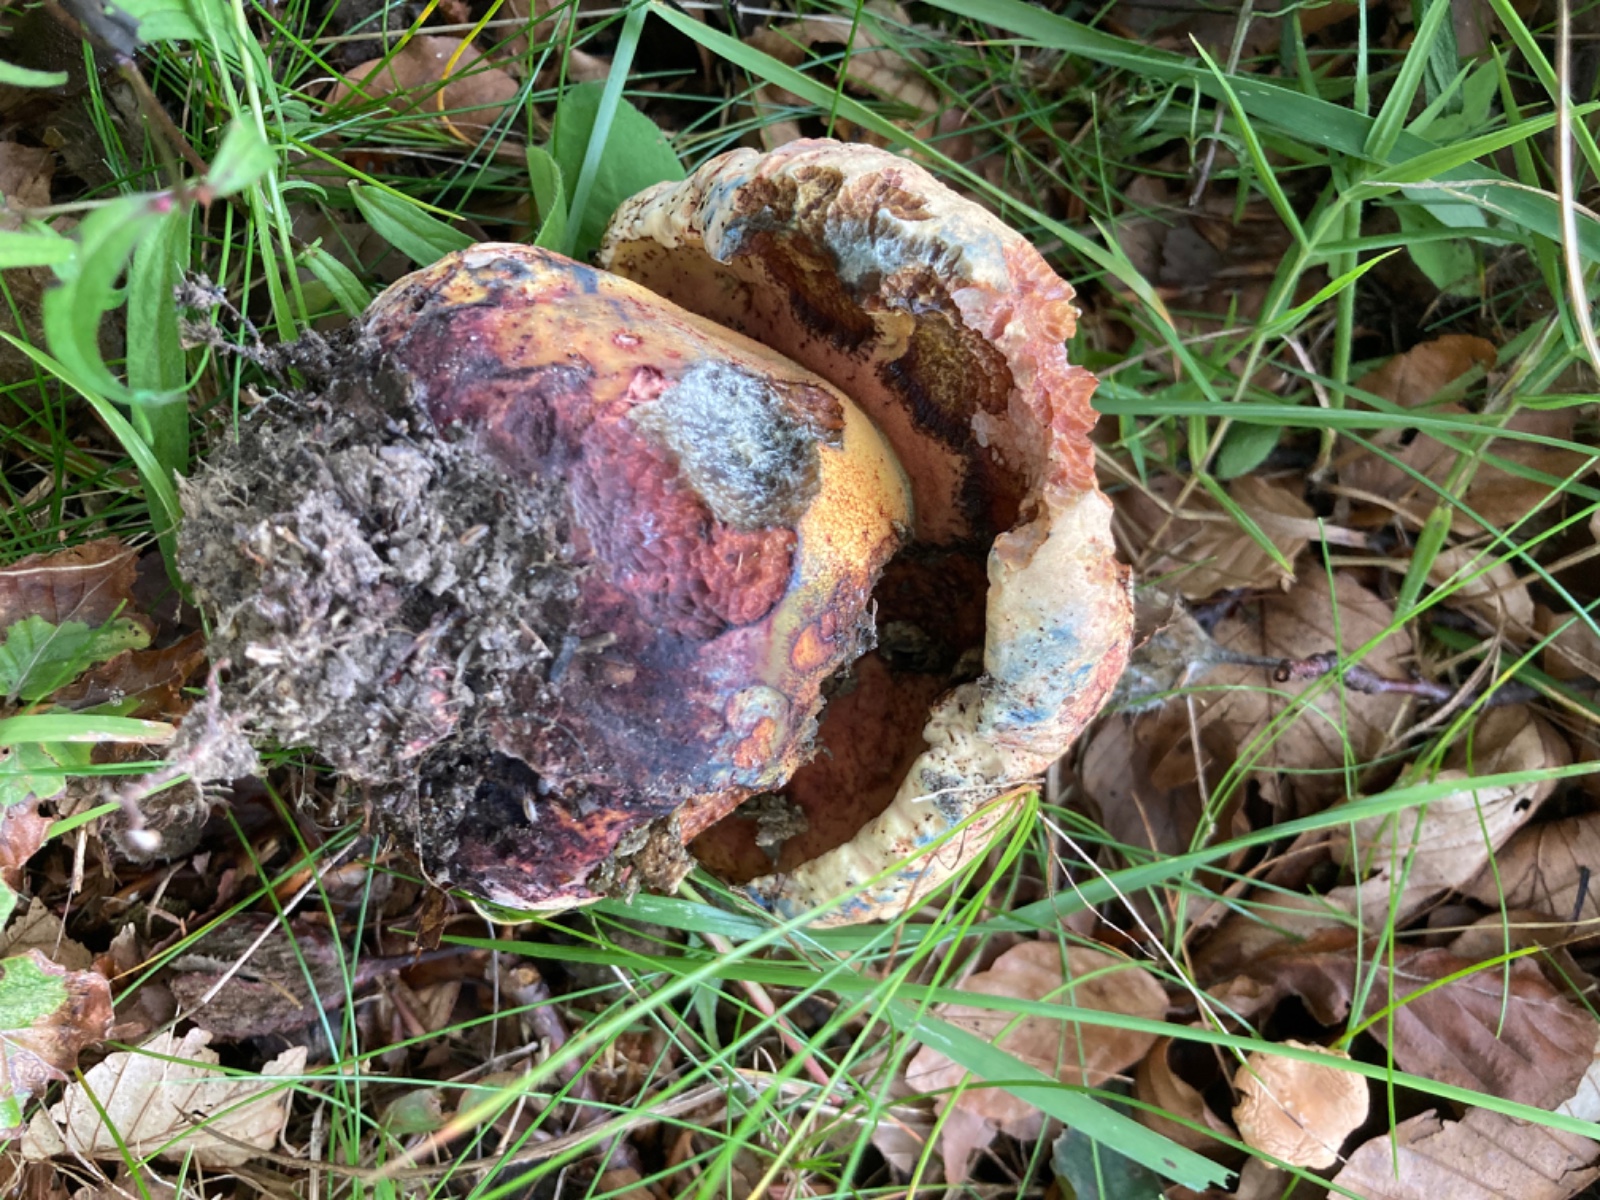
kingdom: Fungi
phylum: Basidiomycota
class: Agaricomycetes
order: Boletales
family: Boletaceae
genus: Imperator
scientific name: Imperator rhodopurpureus
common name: purpur-rørhat
